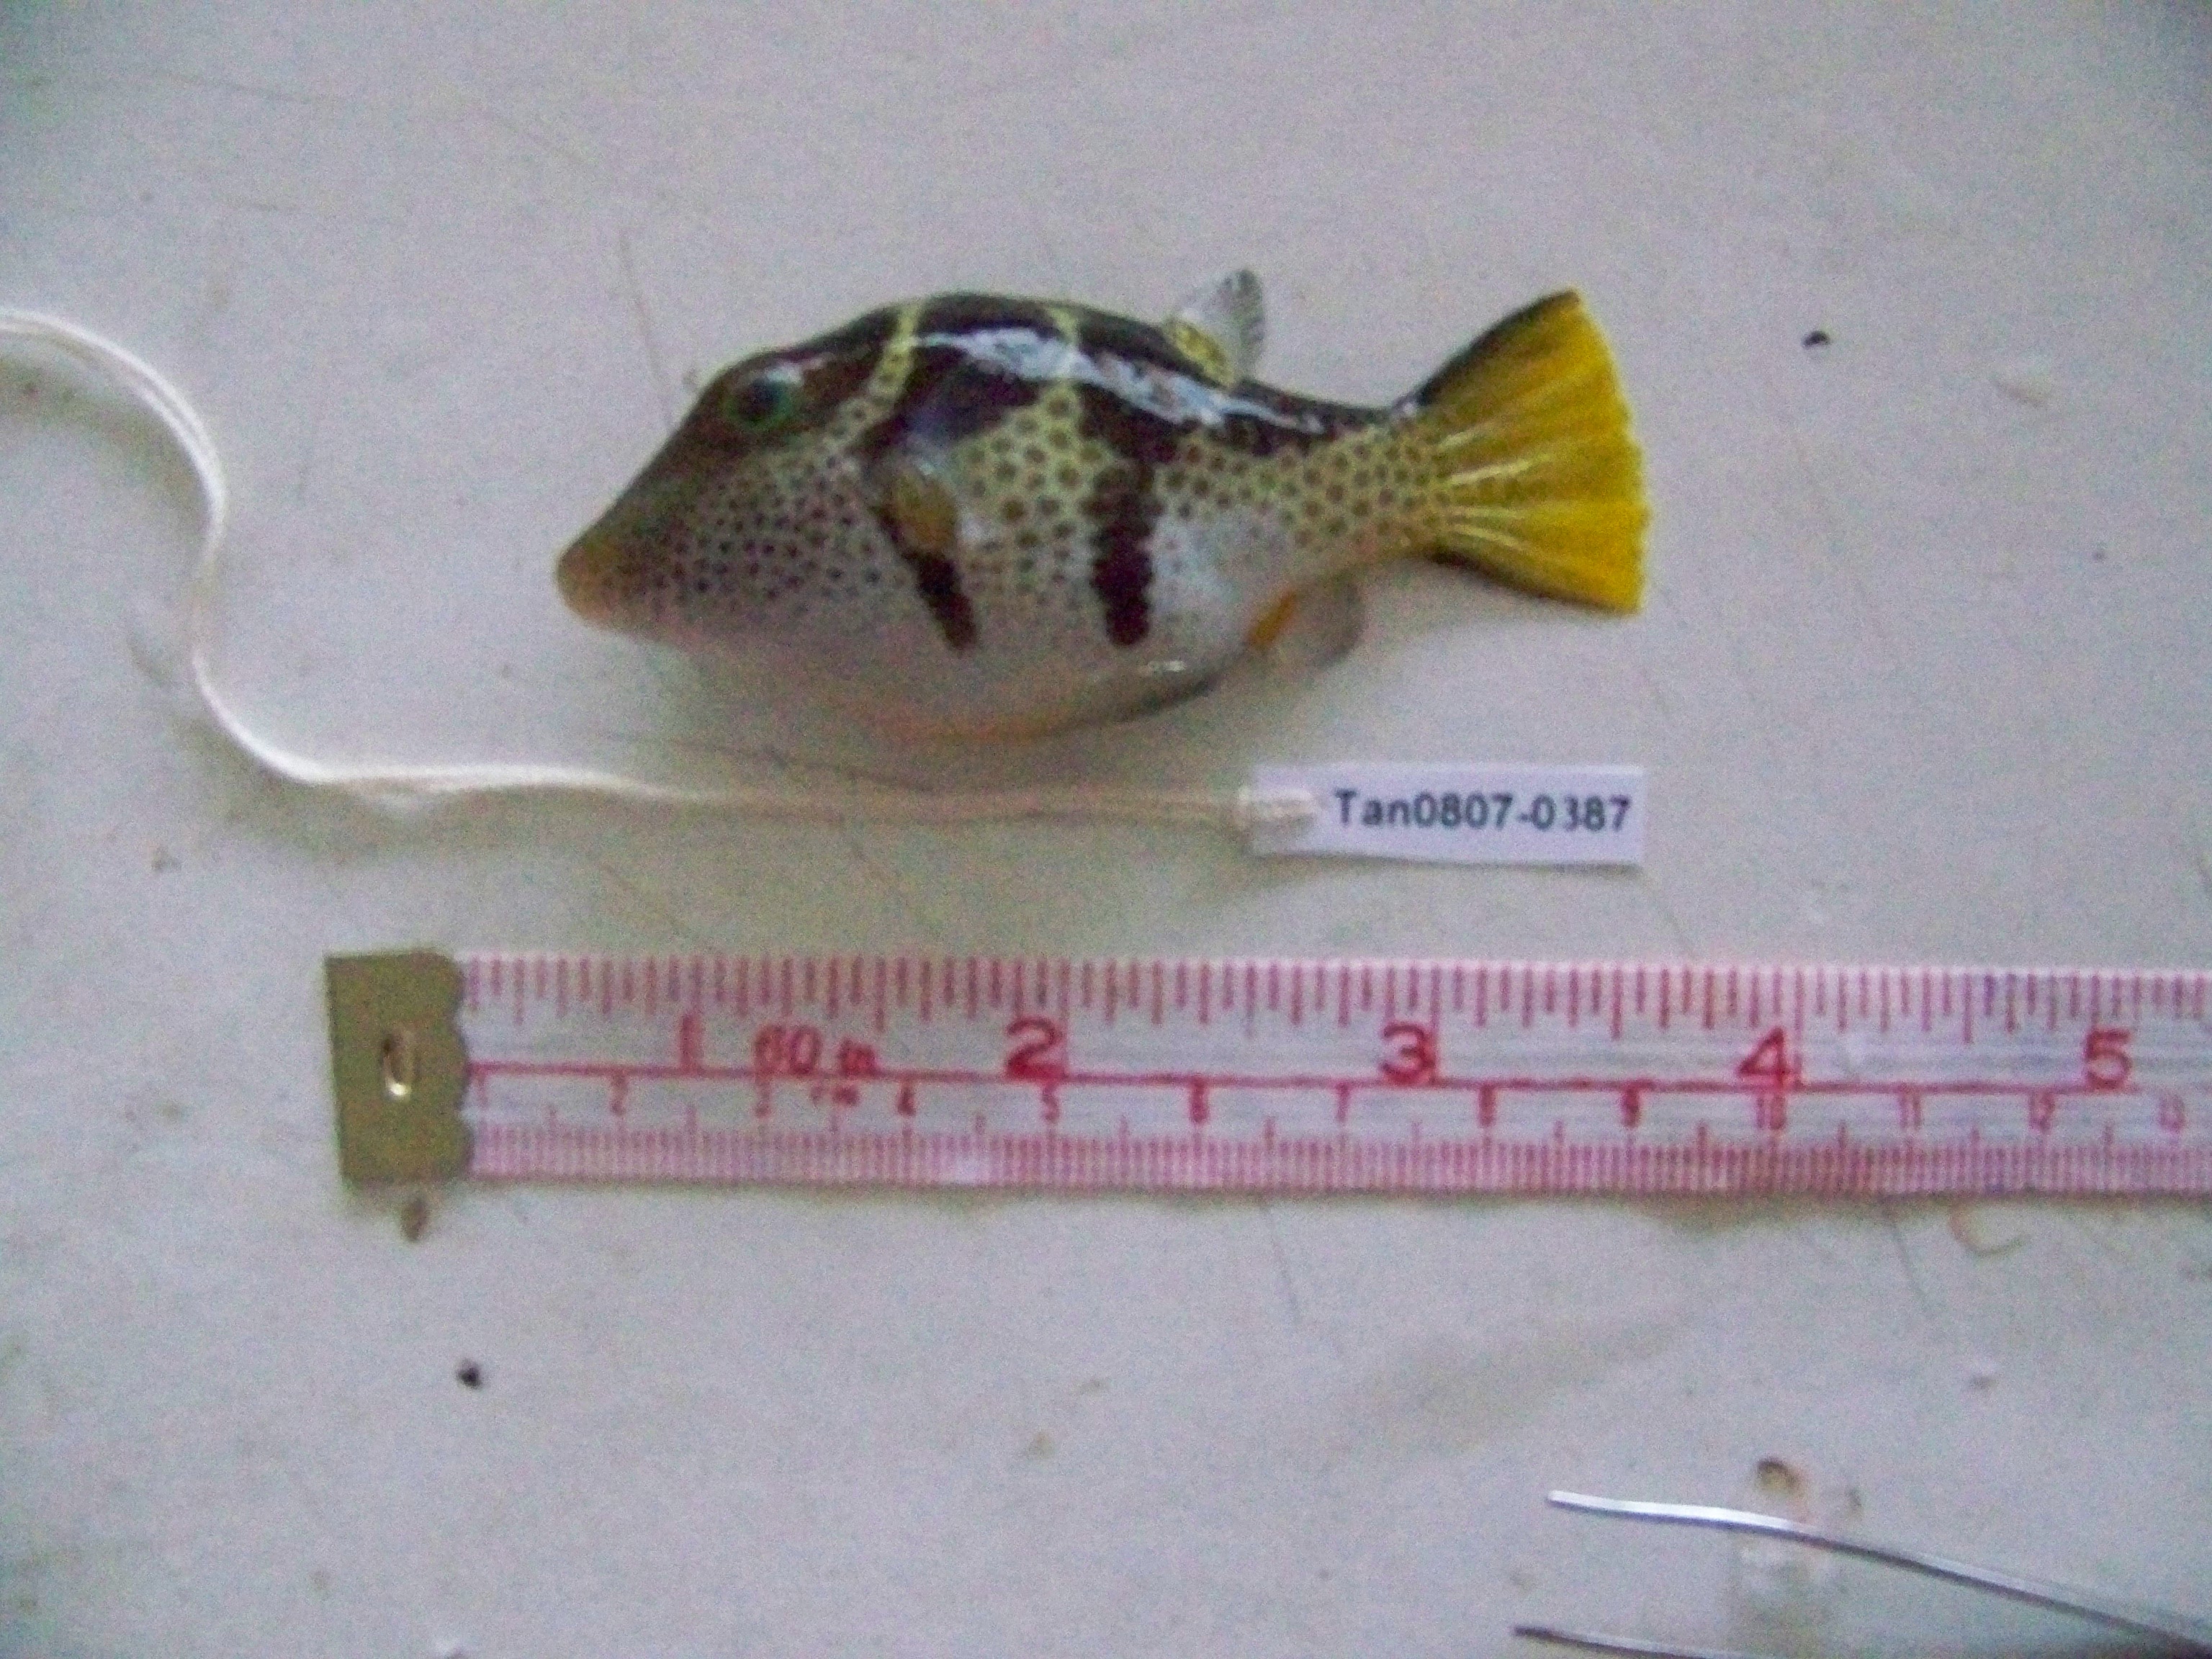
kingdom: Animalia
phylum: Chordata
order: Tetraodontiformes
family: Tetraodontidae
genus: Canthigaster
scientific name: Canthigaster valentini
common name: Banded toby
